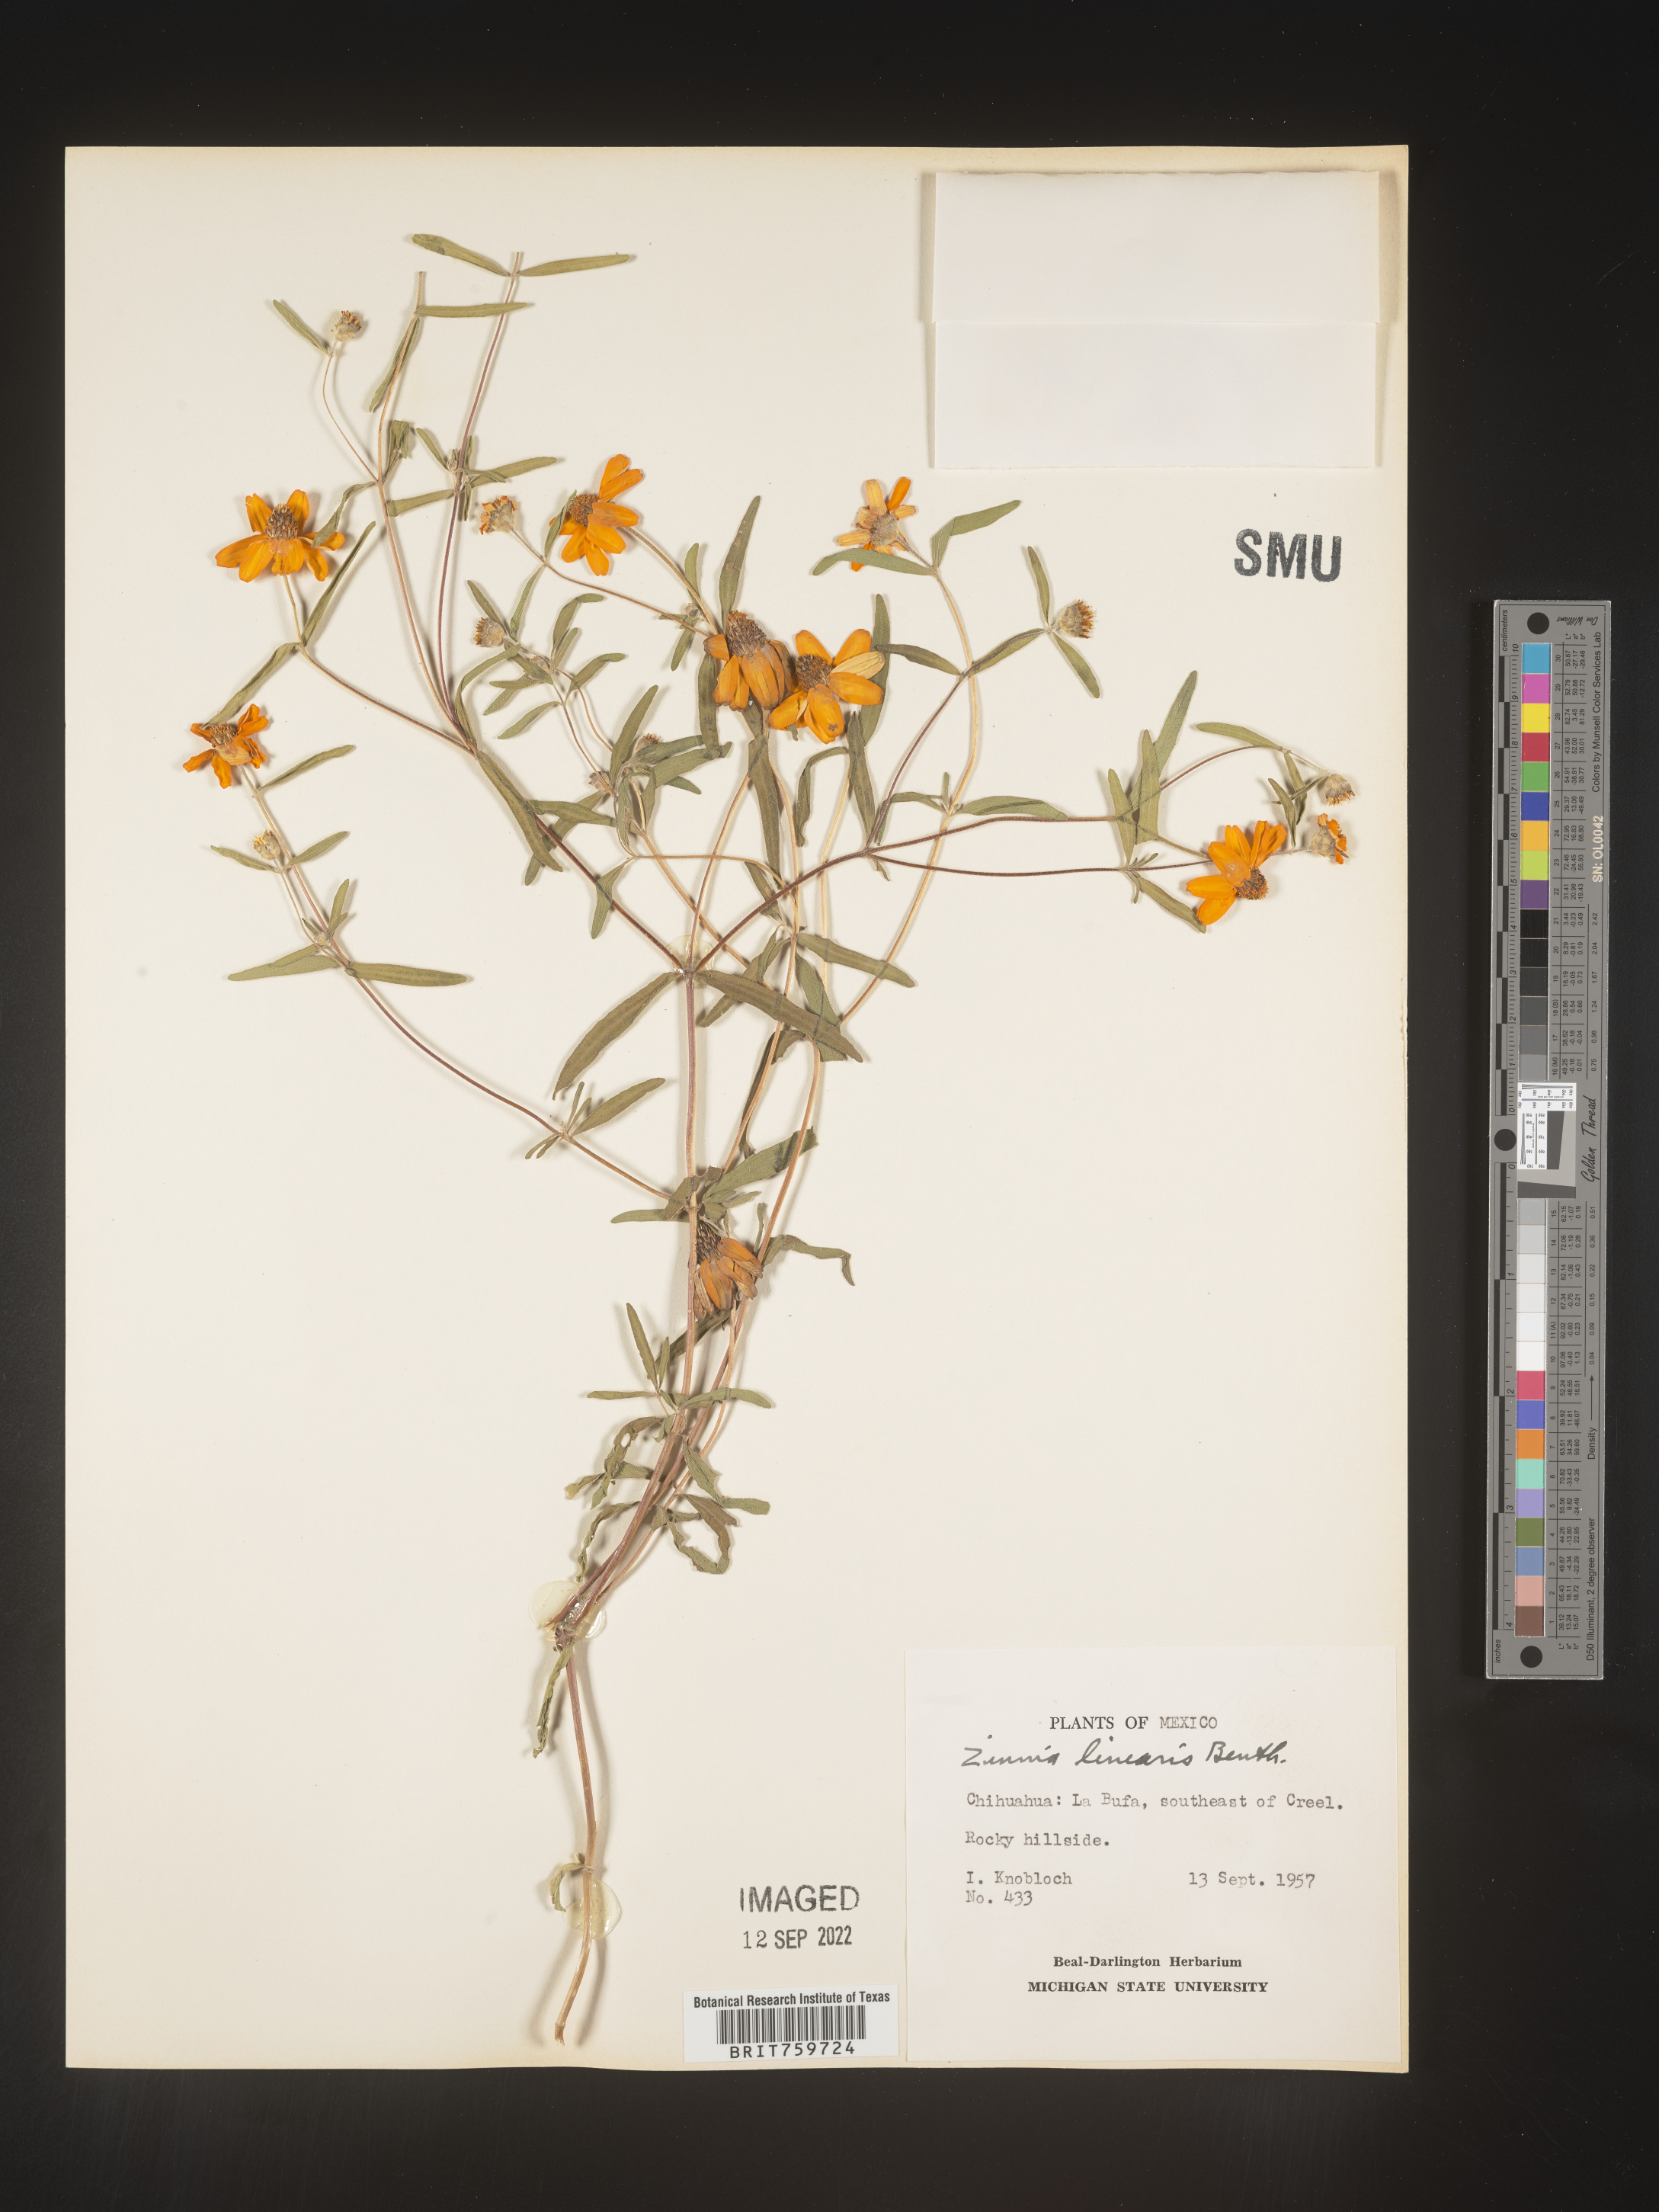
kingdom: Plantae
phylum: Tracheophyta
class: Magnoliopsida
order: Asterales
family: Asteraceae
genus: Zinnia
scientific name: Zinnia
